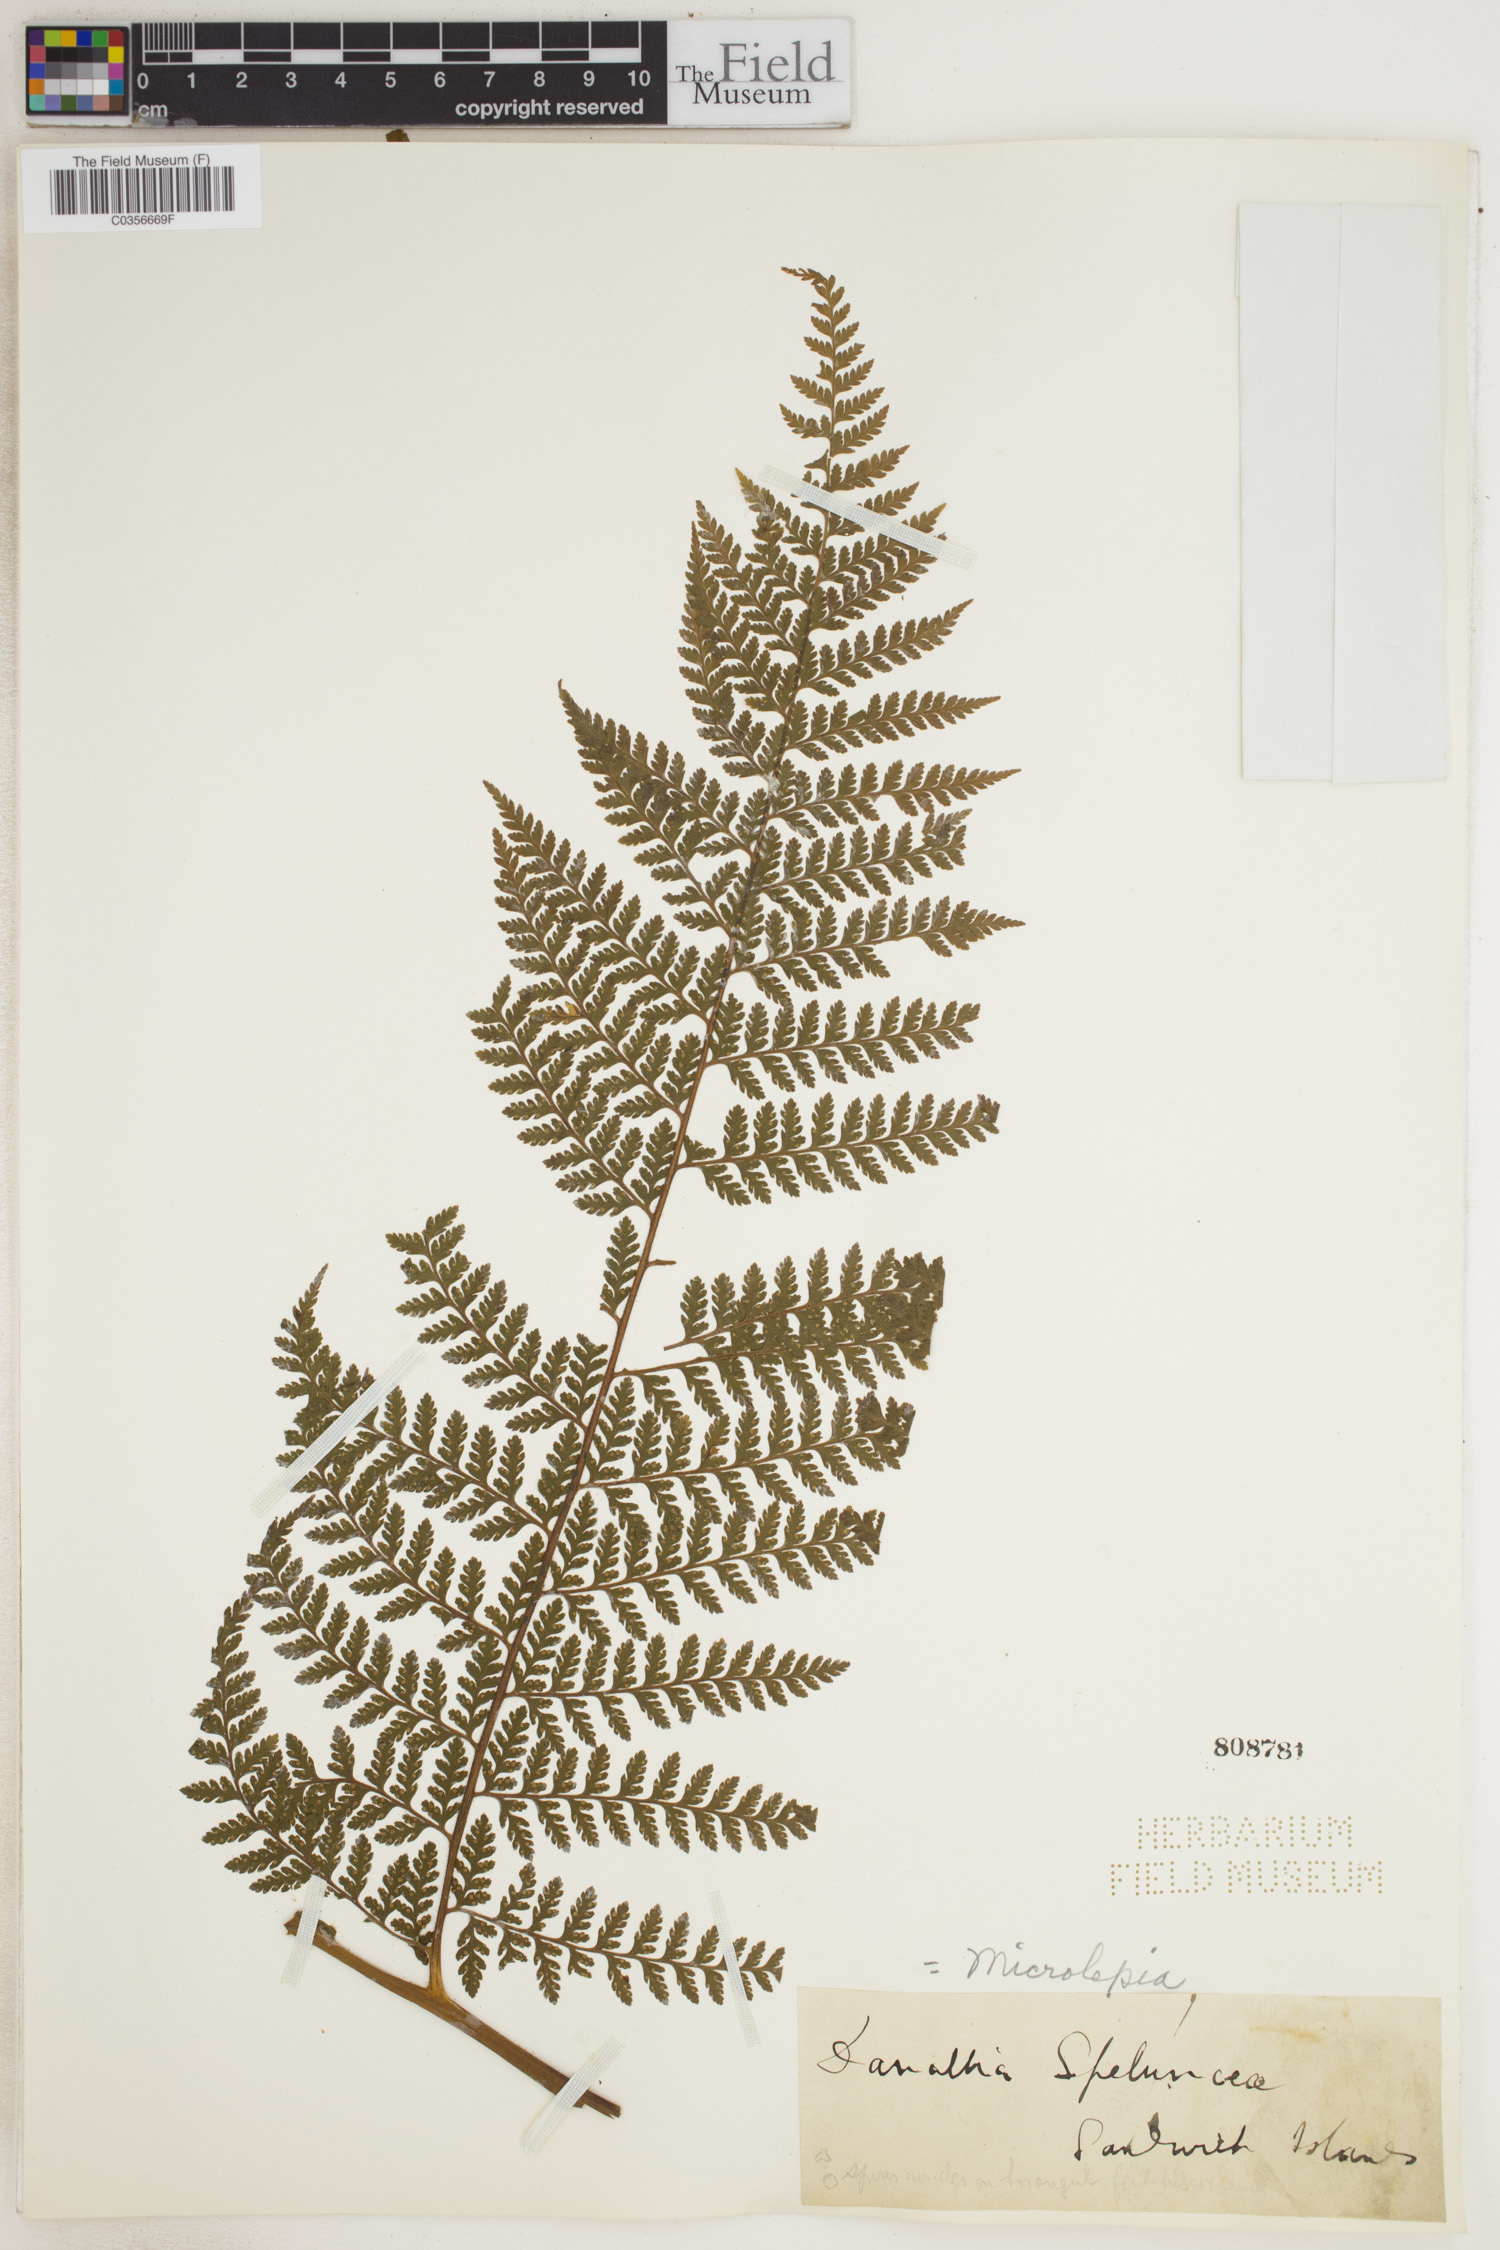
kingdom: Plantae
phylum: Tracheophyta
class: Polypodiopsida
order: Polypodiales
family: Dennstaedtiaceae
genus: Microlepia
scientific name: Microlepia speluncae
